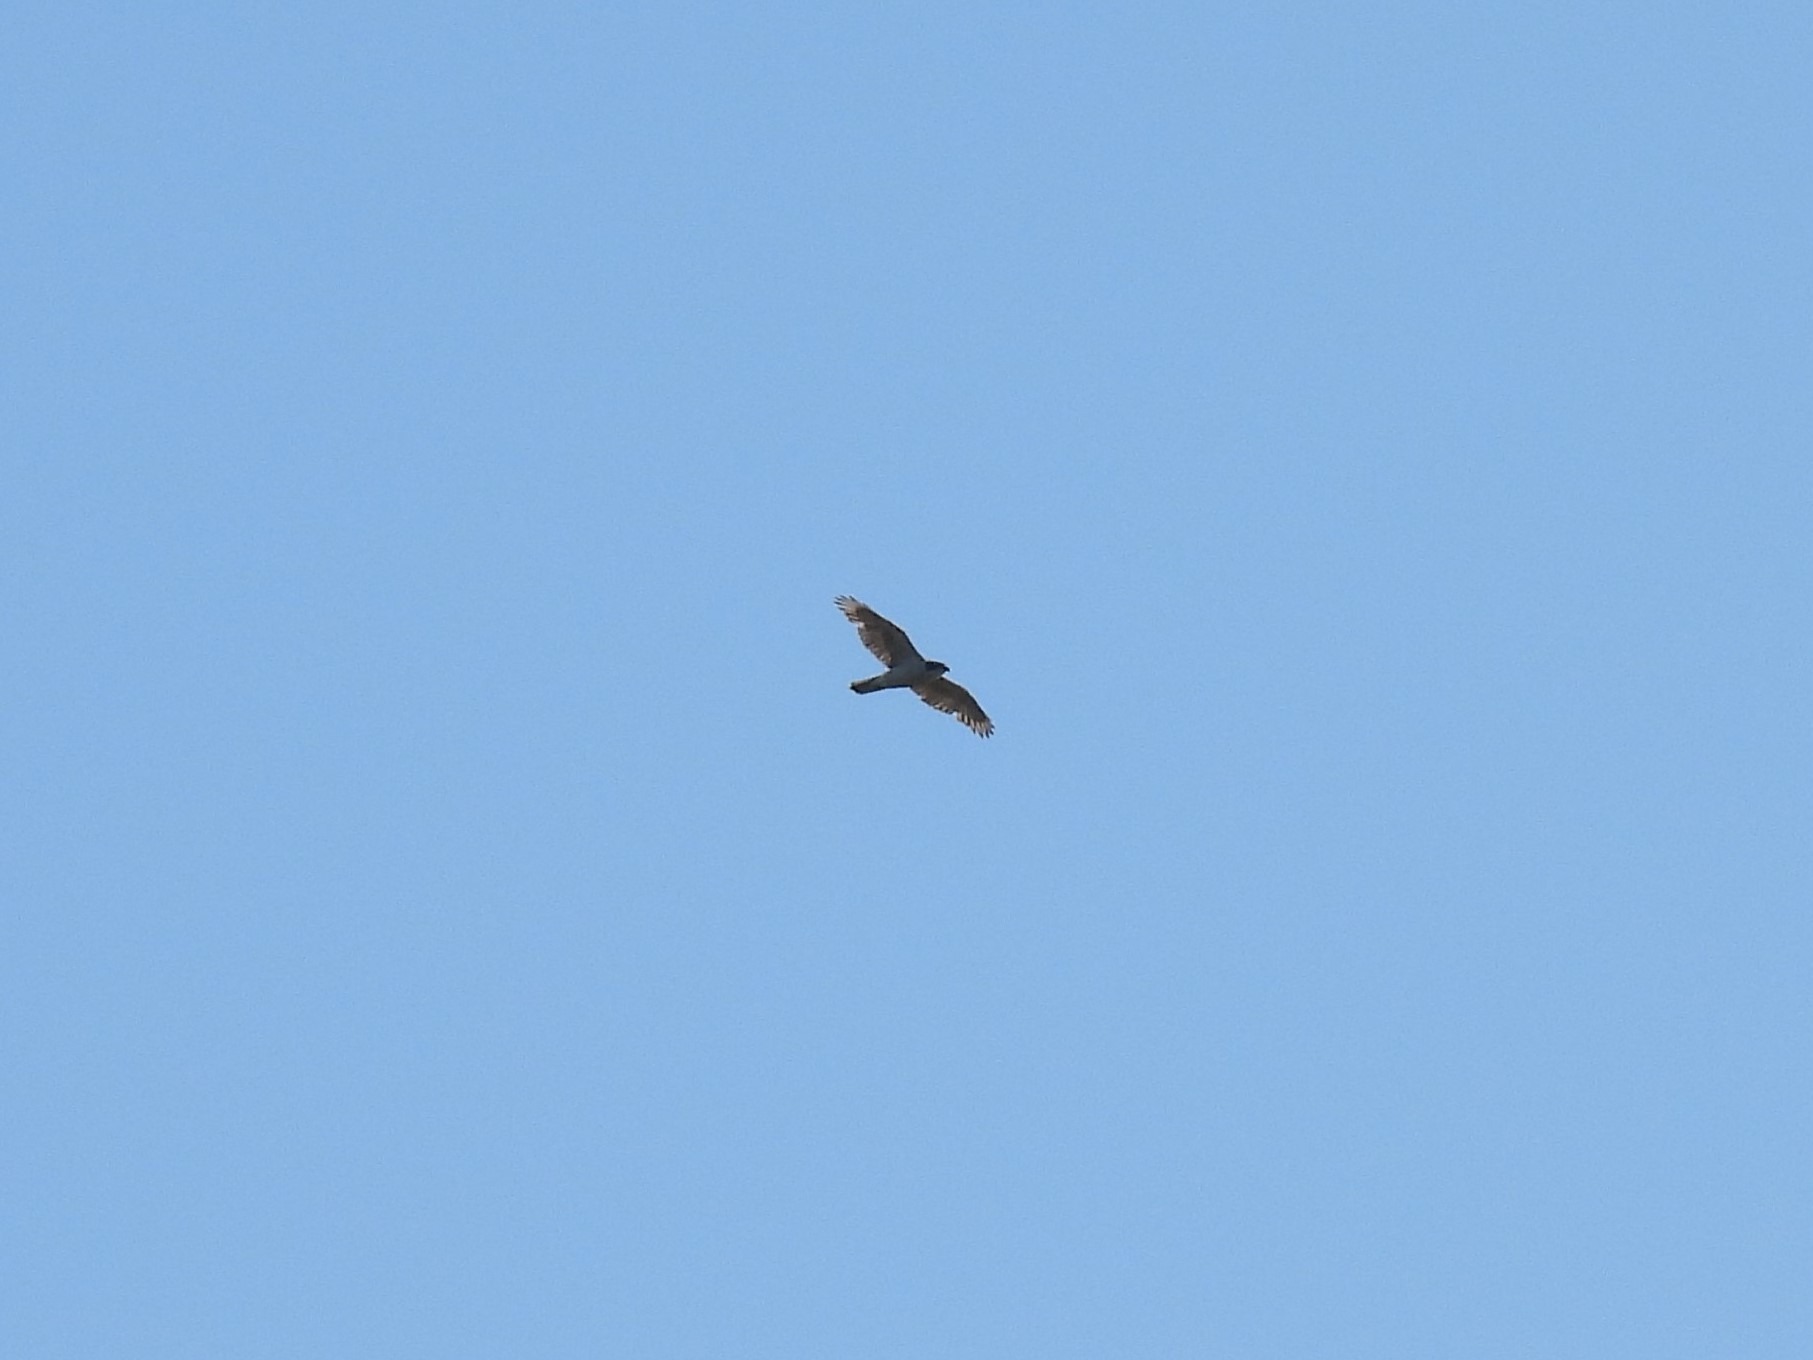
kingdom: Animalia
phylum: Chordata
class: Aves
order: Accipitriformes
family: Accipitridae
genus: Accipiter
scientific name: Accipiter gentilis
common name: Duehøg
